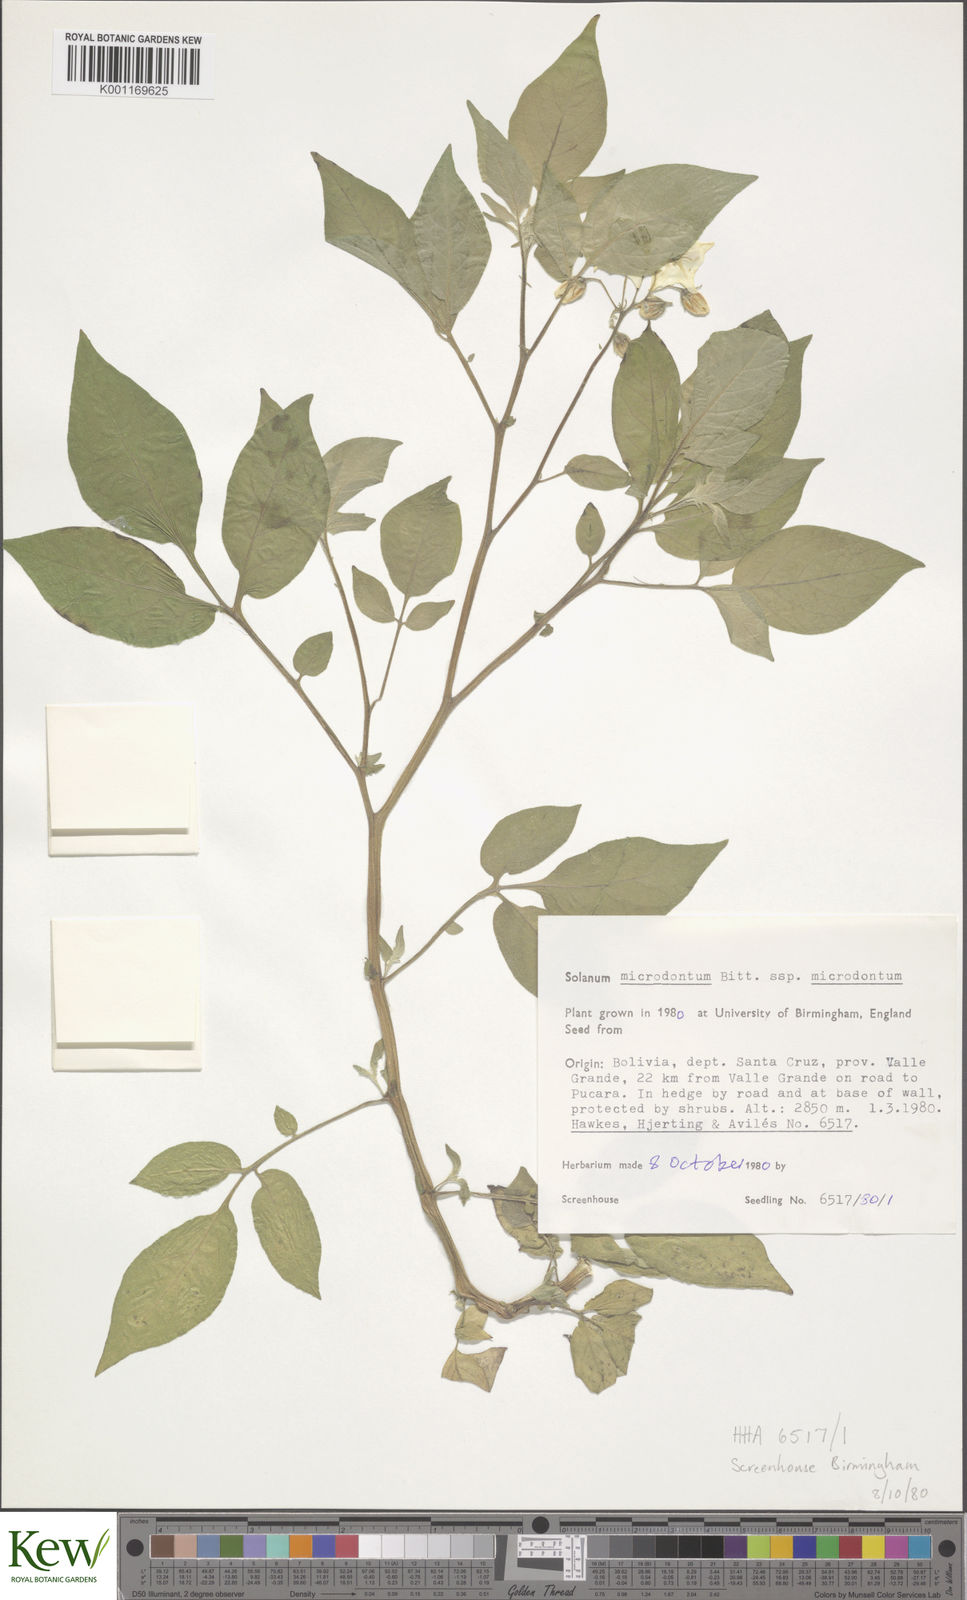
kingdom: Plantae
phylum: Tracheophyta
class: Magnoliopsida
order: Solanales
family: Solanaceae
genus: Solanum
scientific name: Solanum microdontum
